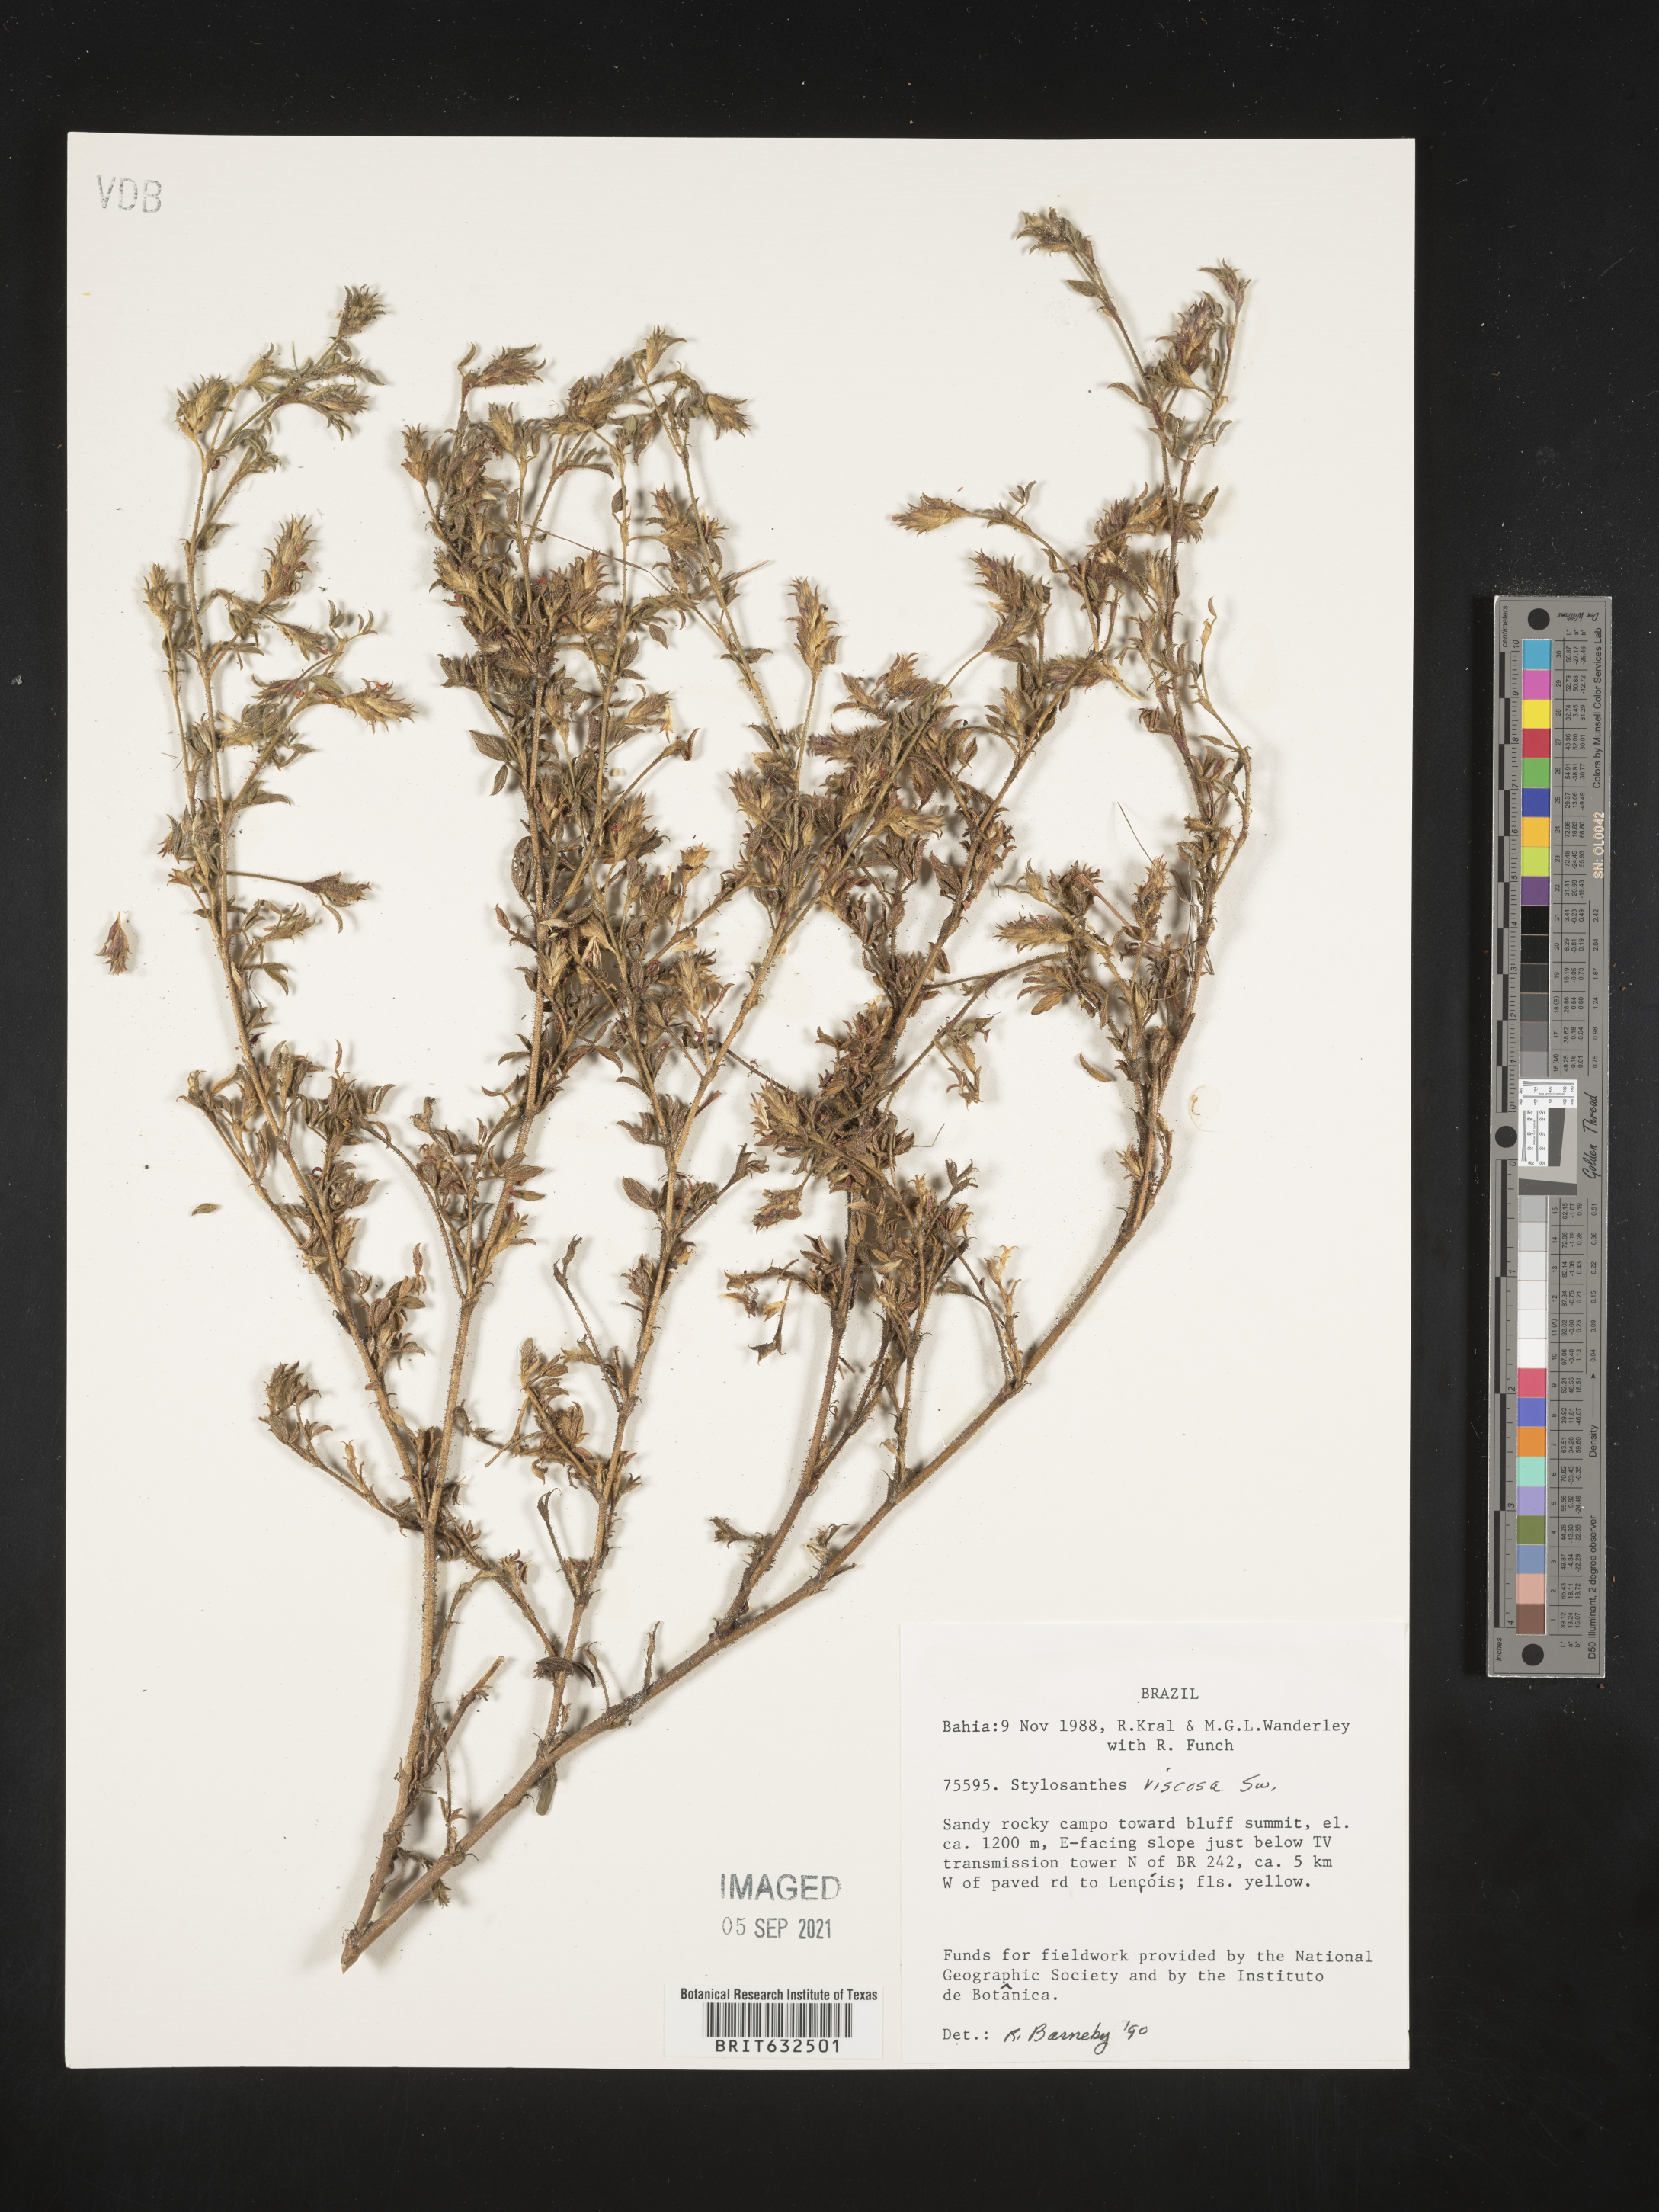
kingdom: Plantae
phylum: Tracheophyta
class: Magnoliopsida
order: Fabales
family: Fabaceae
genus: Stylosanthes
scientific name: Stylosanthes
